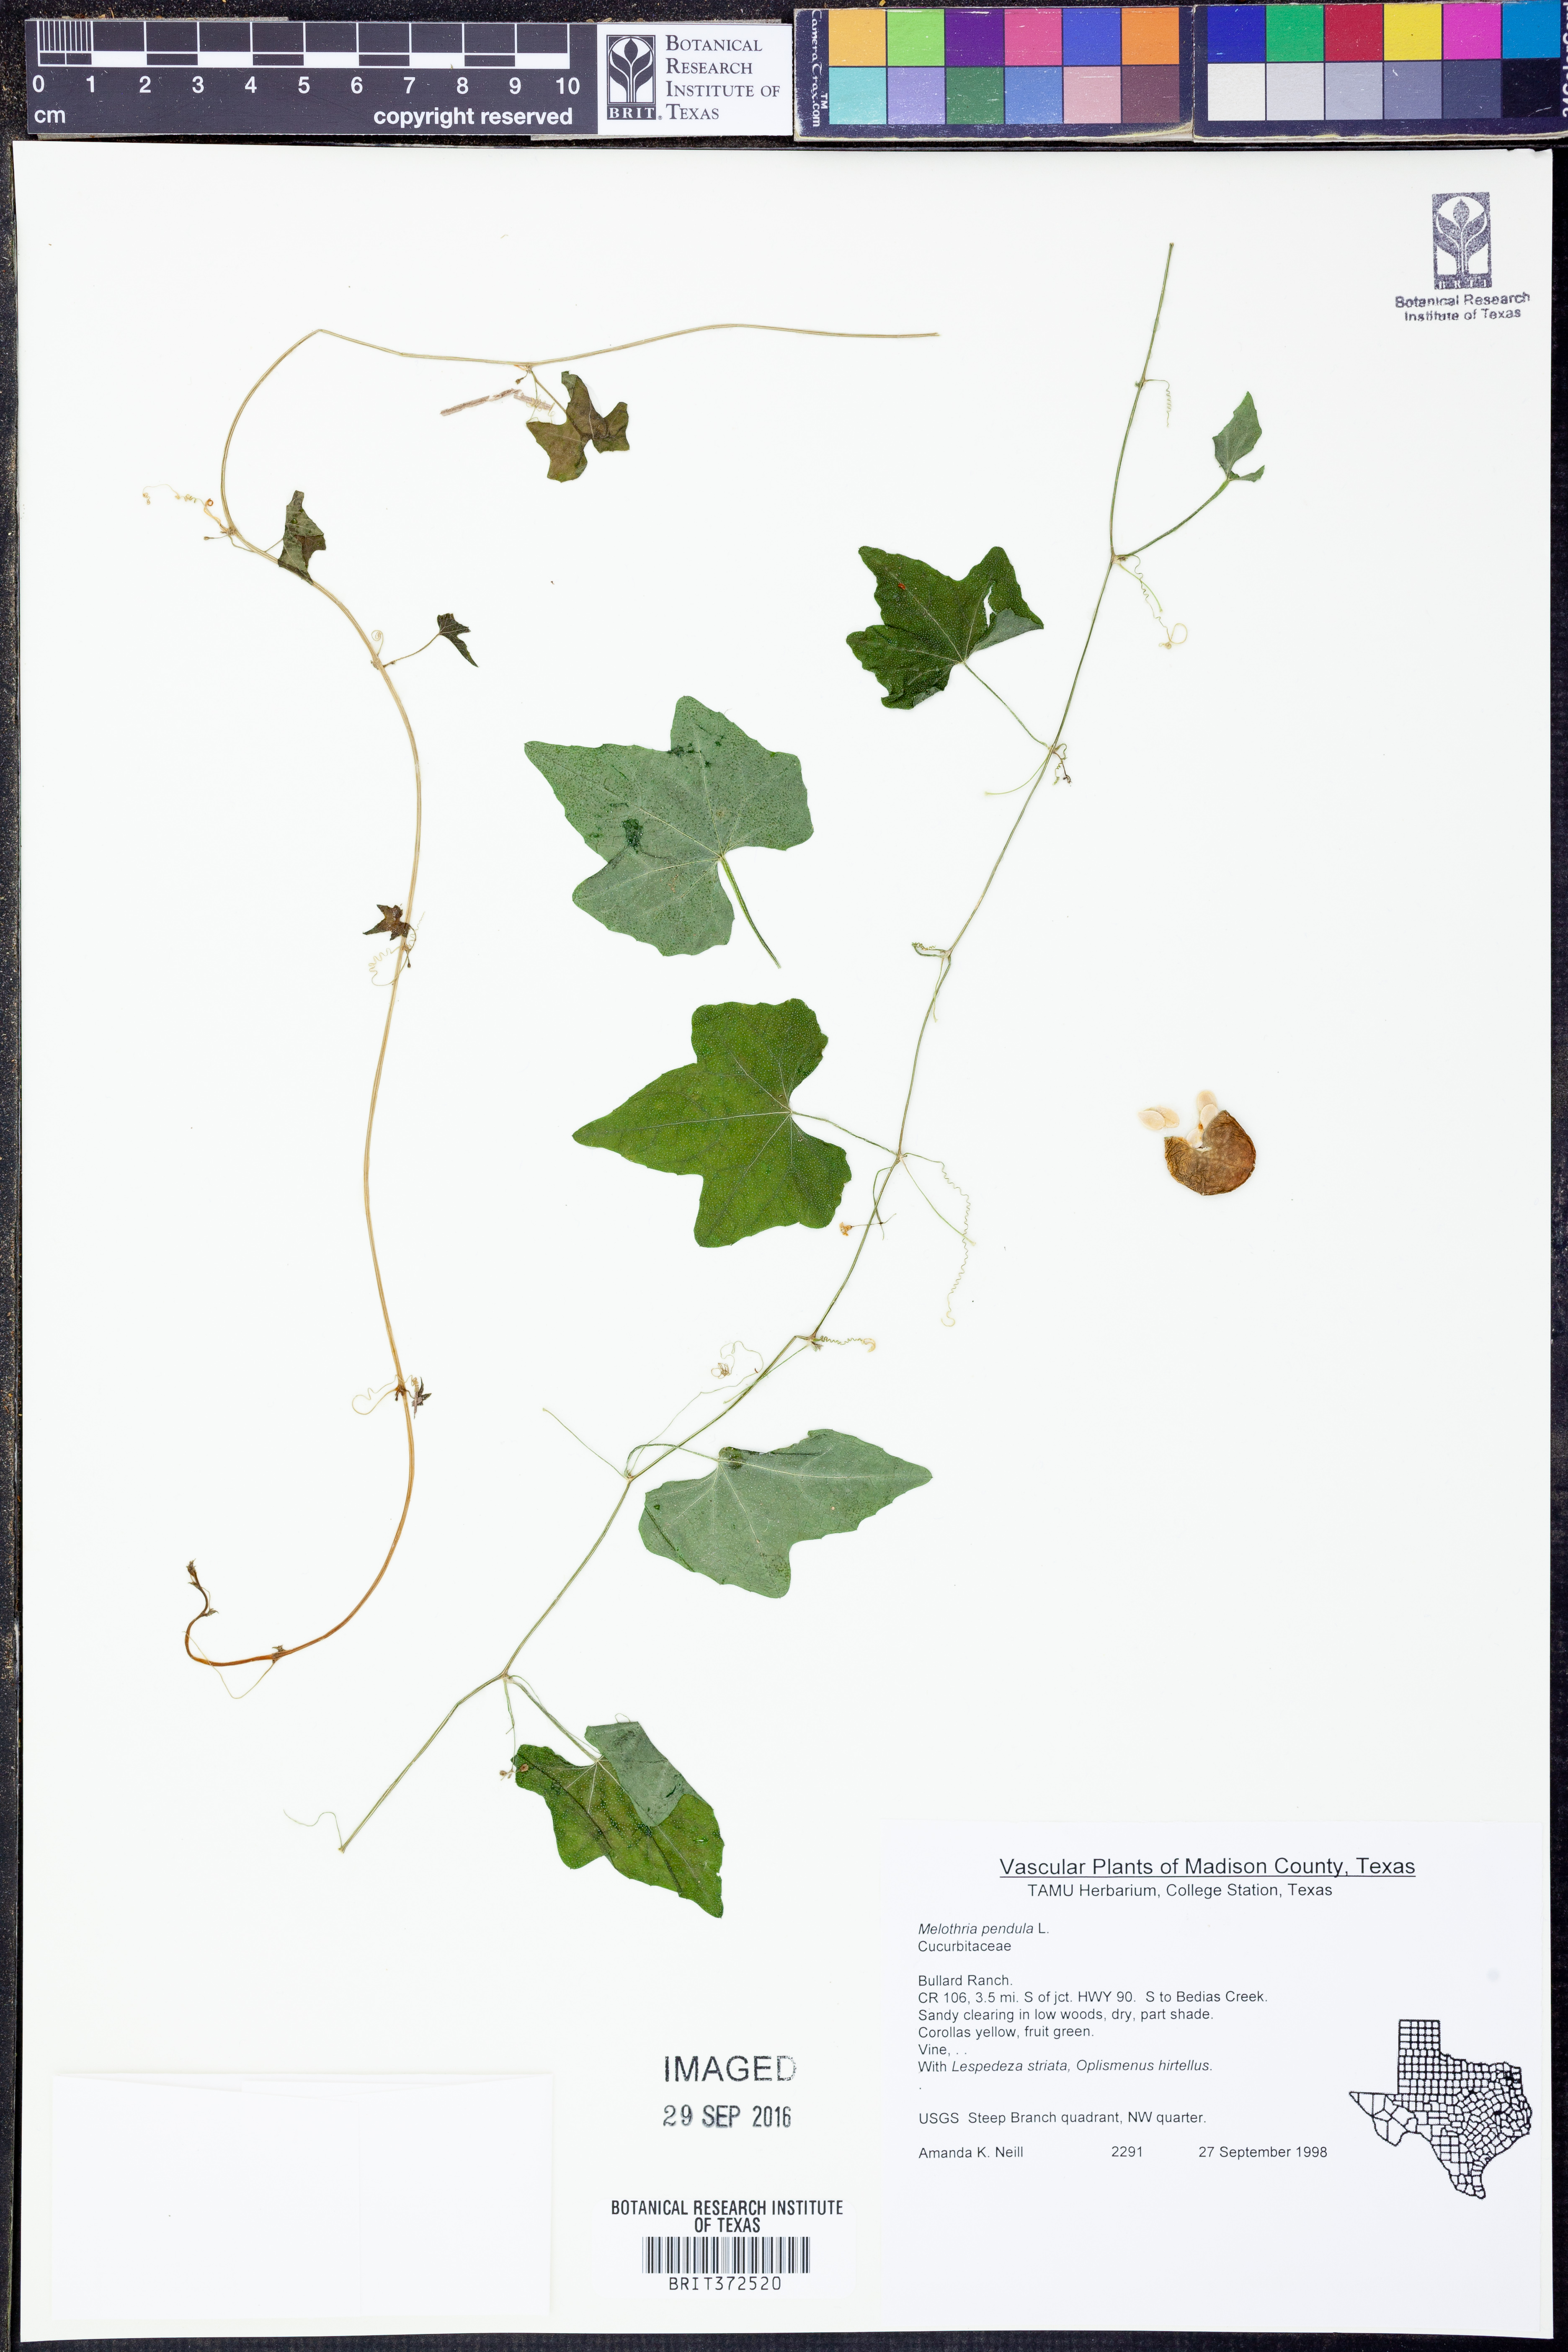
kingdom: Plantae
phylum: Tracheophyta
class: Magnoliopsida
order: Cucurbitales
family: Cucurbitaceae
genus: Melothria
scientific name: Melothria pendula
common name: Creeping-cucumber
